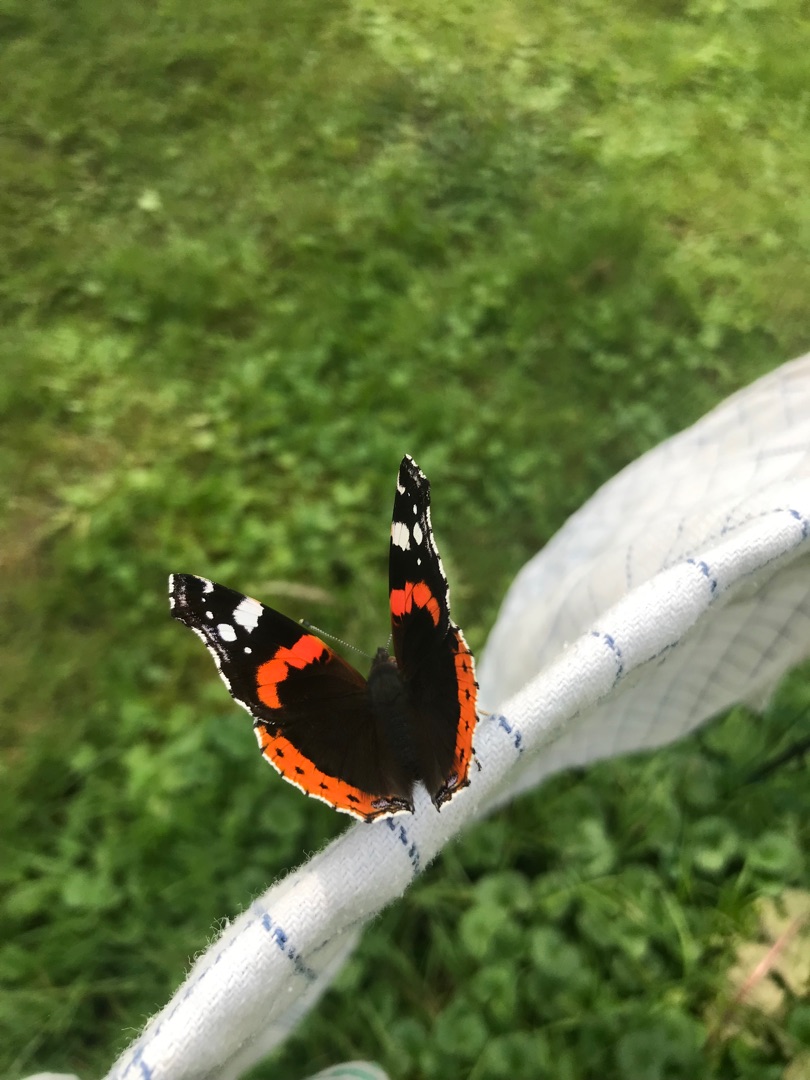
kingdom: Animalia
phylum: Arthropoda
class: Insecta
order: Lepidoptera
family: Nymphalidae
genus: Vanessa
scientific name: Vanessa atalanta
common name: Admiral
